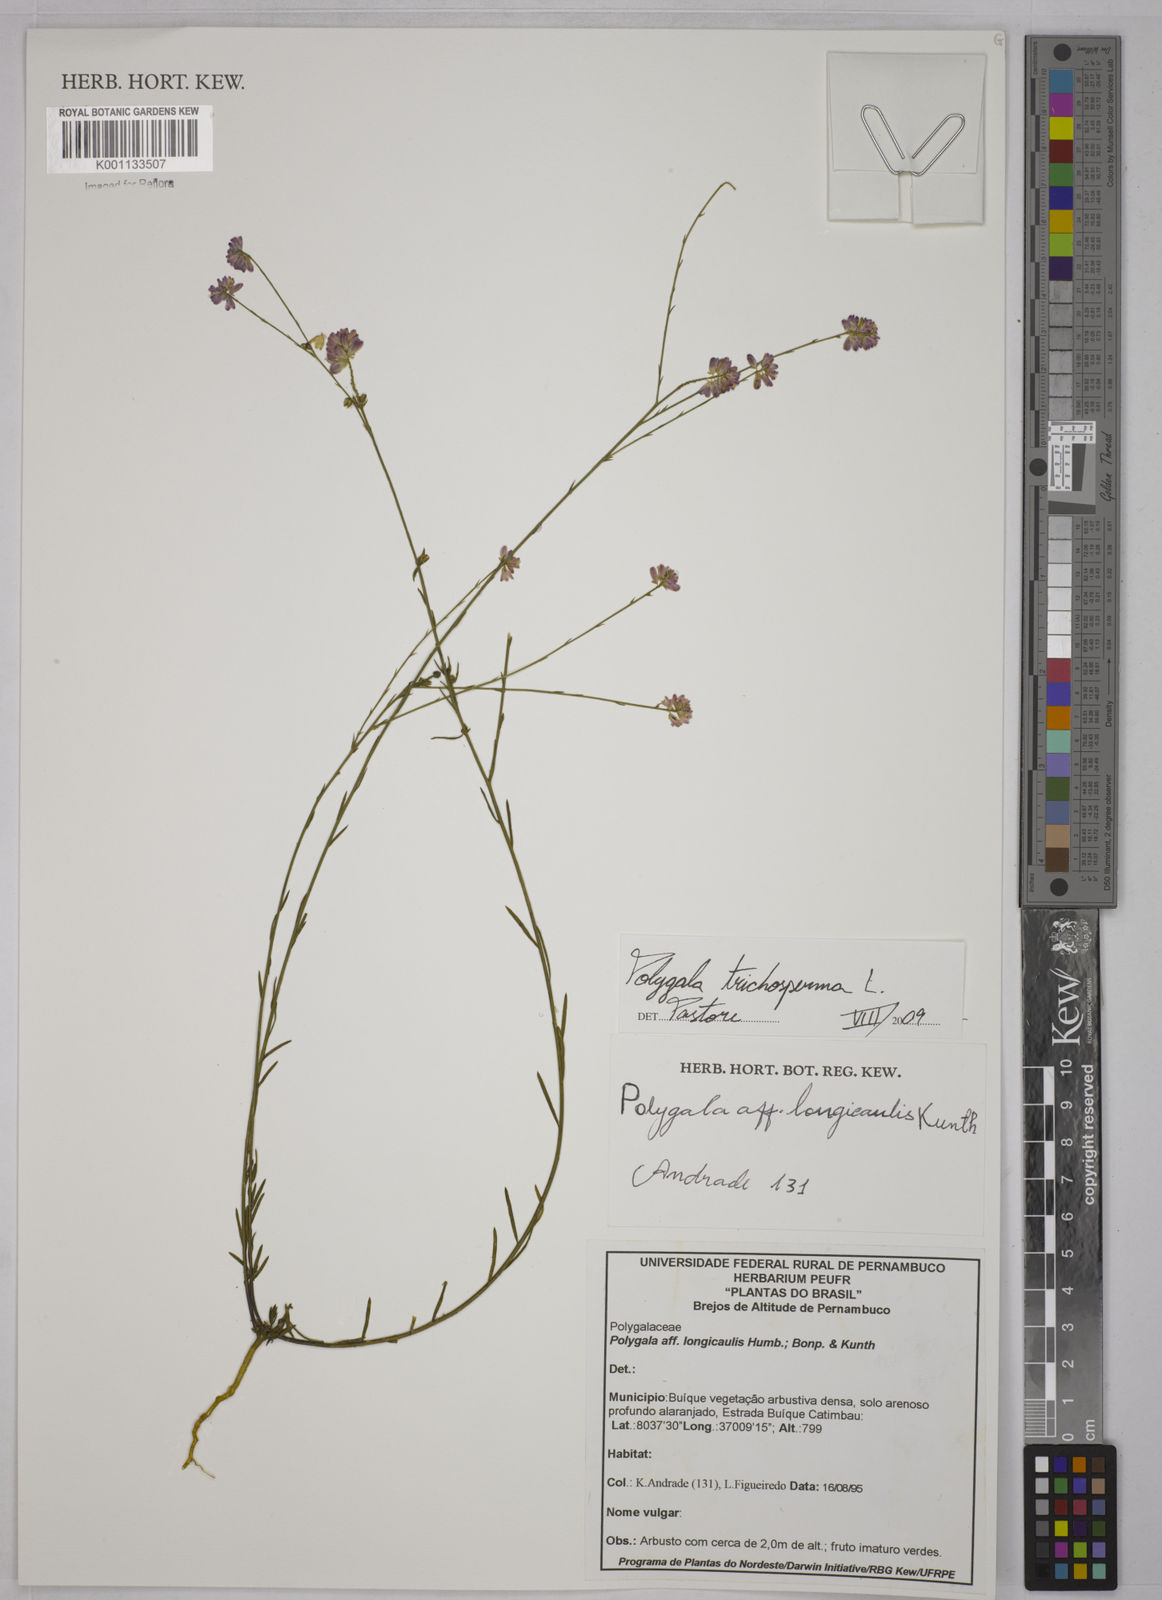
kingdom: Plantae
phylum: Tracheophyta
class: Magnoliopsida
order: Fabales
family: Polygalaceae
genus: Polygala
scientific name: Polygala trichosperma
